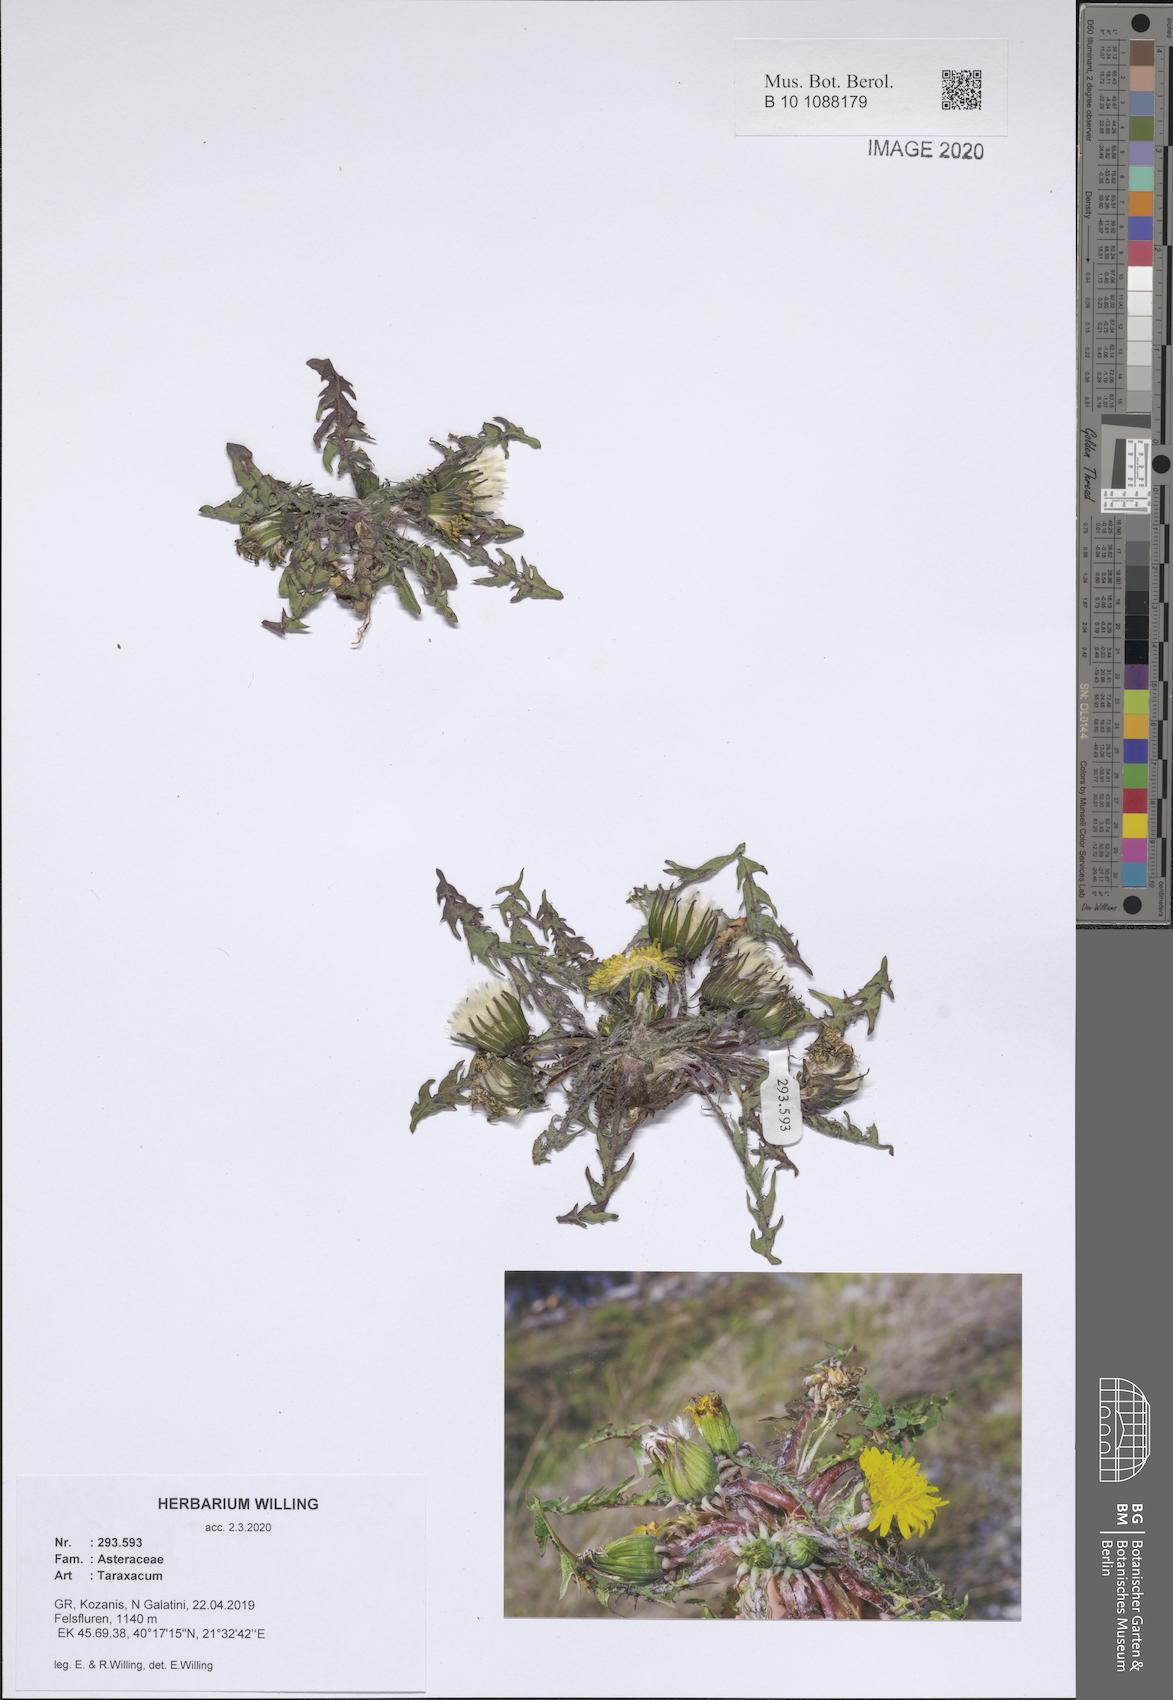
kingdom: Plantae
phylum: Tracheophyta
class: Magnoliopsida
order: Asterales
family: Asteraceae
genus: Taraxacum
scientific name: Taraxacum
